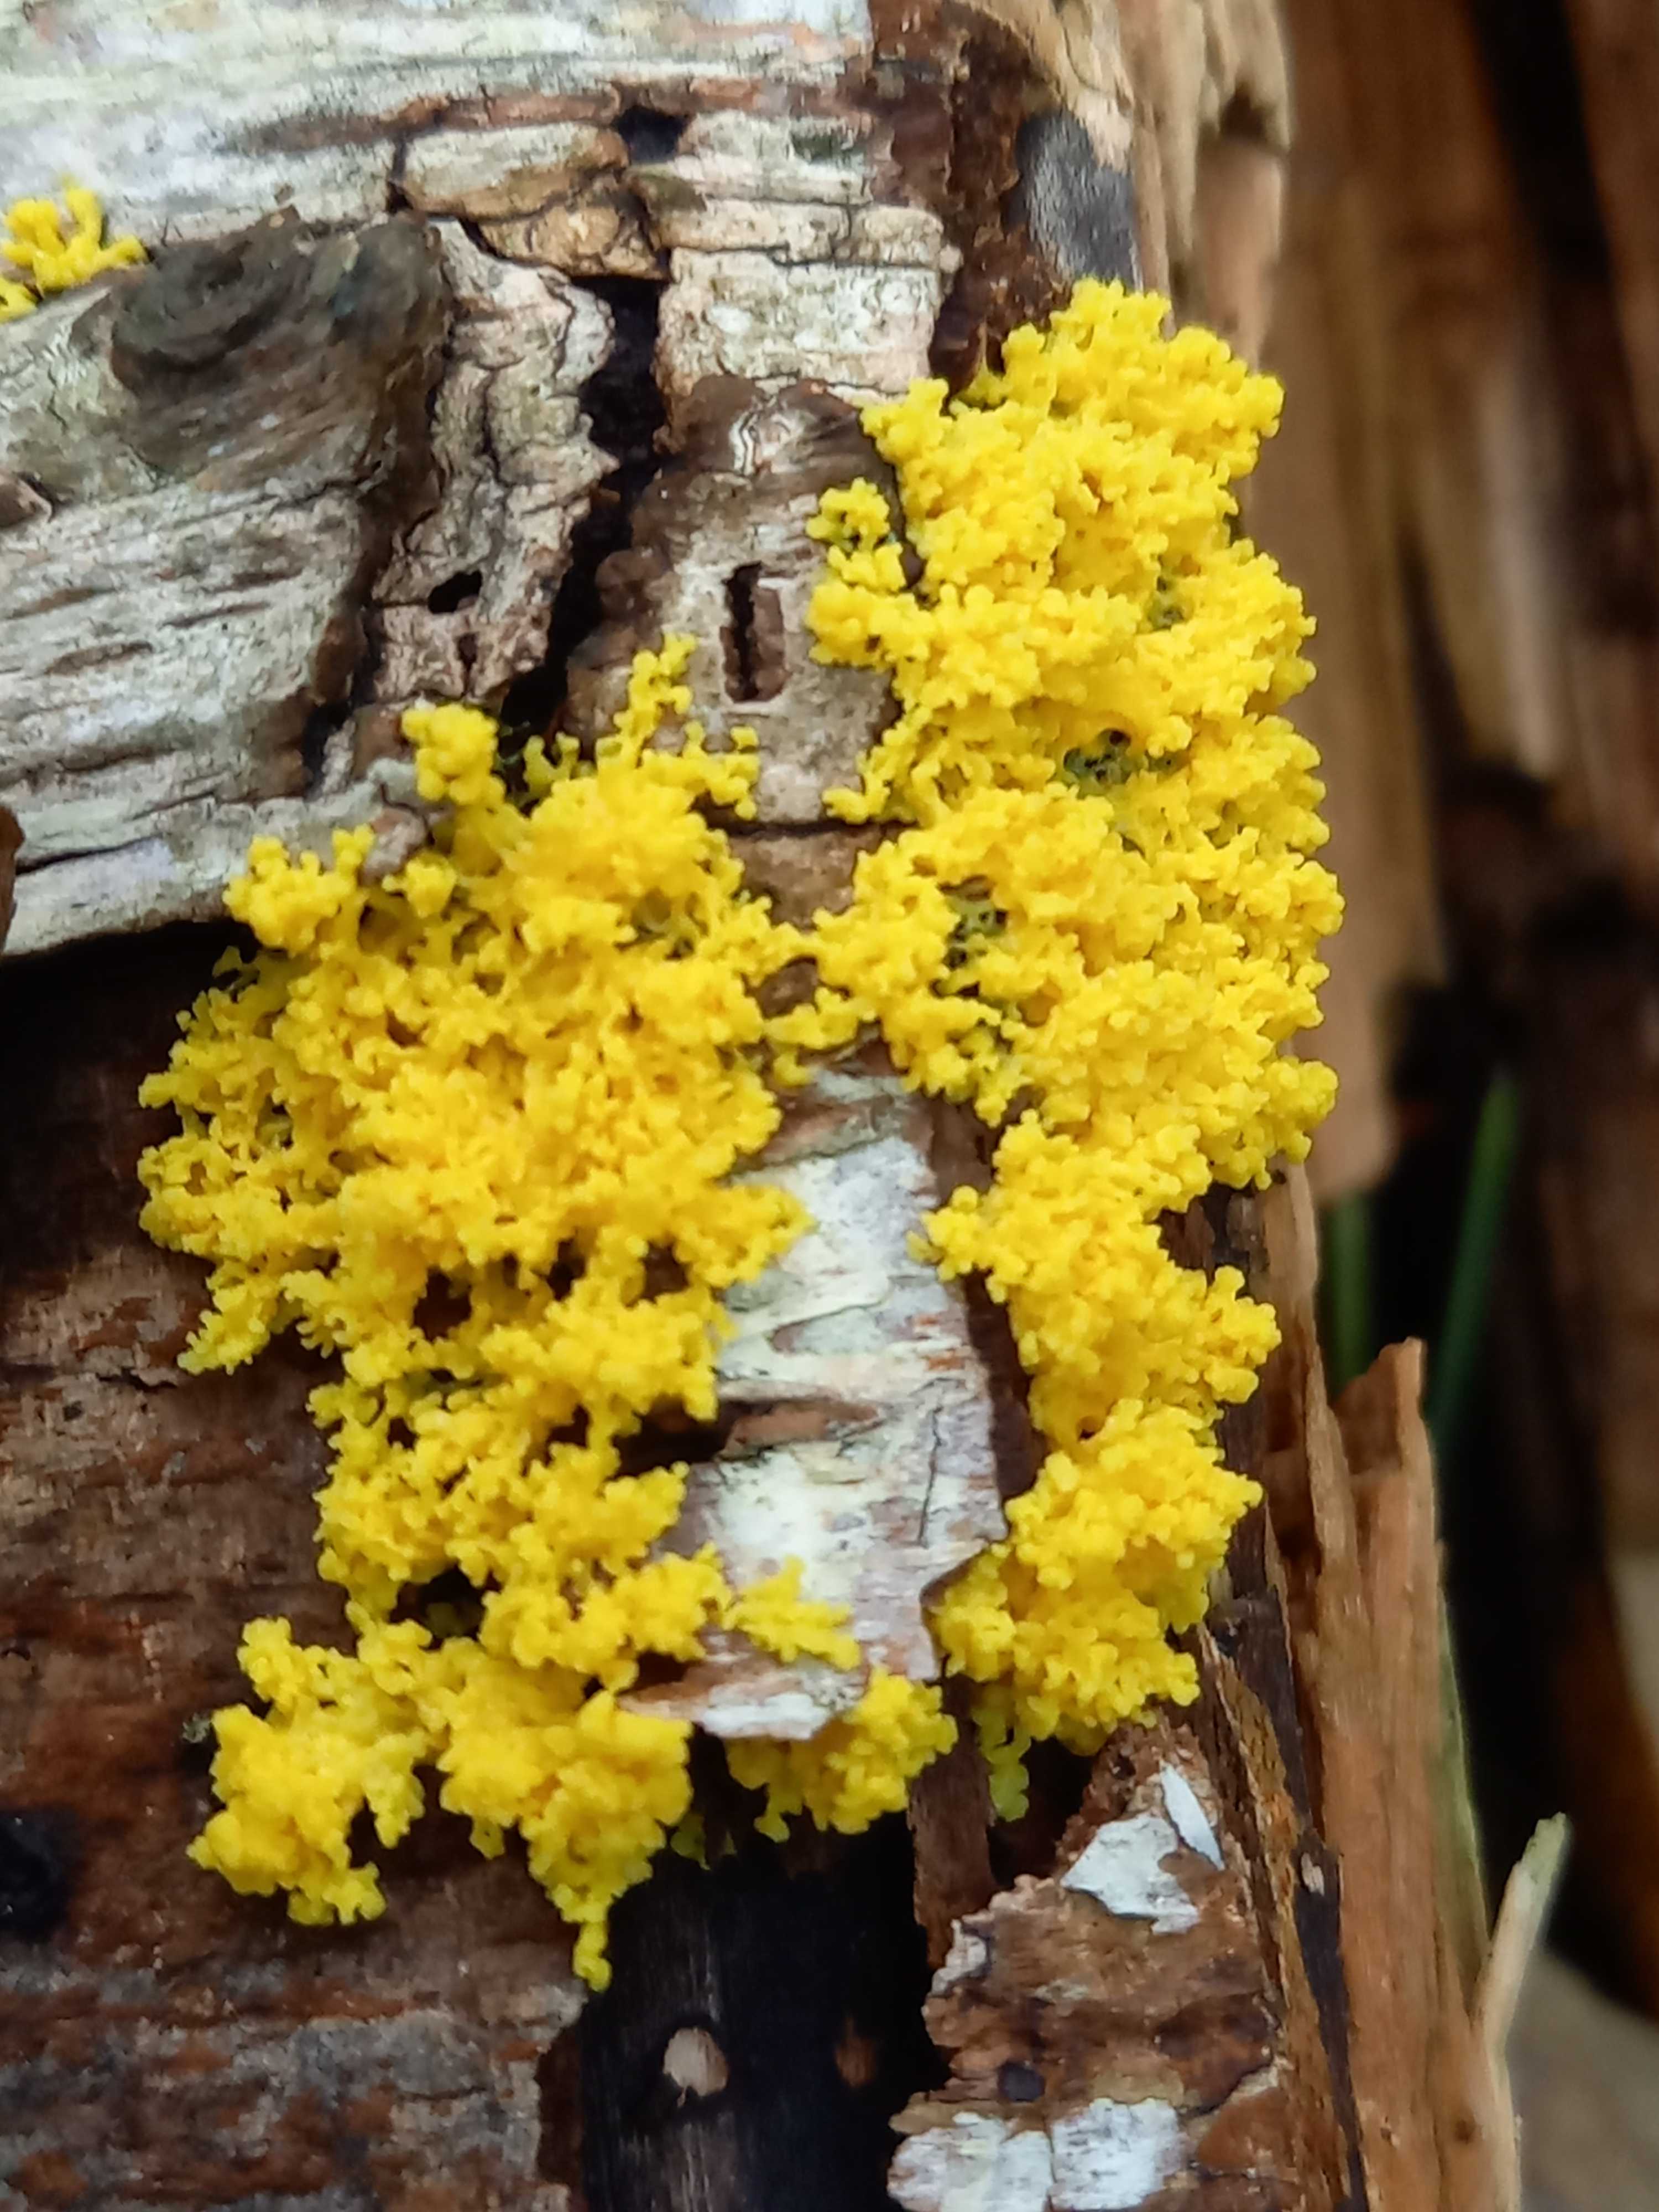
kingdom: Protozoa
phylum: Mycetozoa
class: Myxomycetes
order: Physarales
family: Physaraceae
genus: Fuligo
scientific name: Fuligo septica
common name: gul troldsmør
